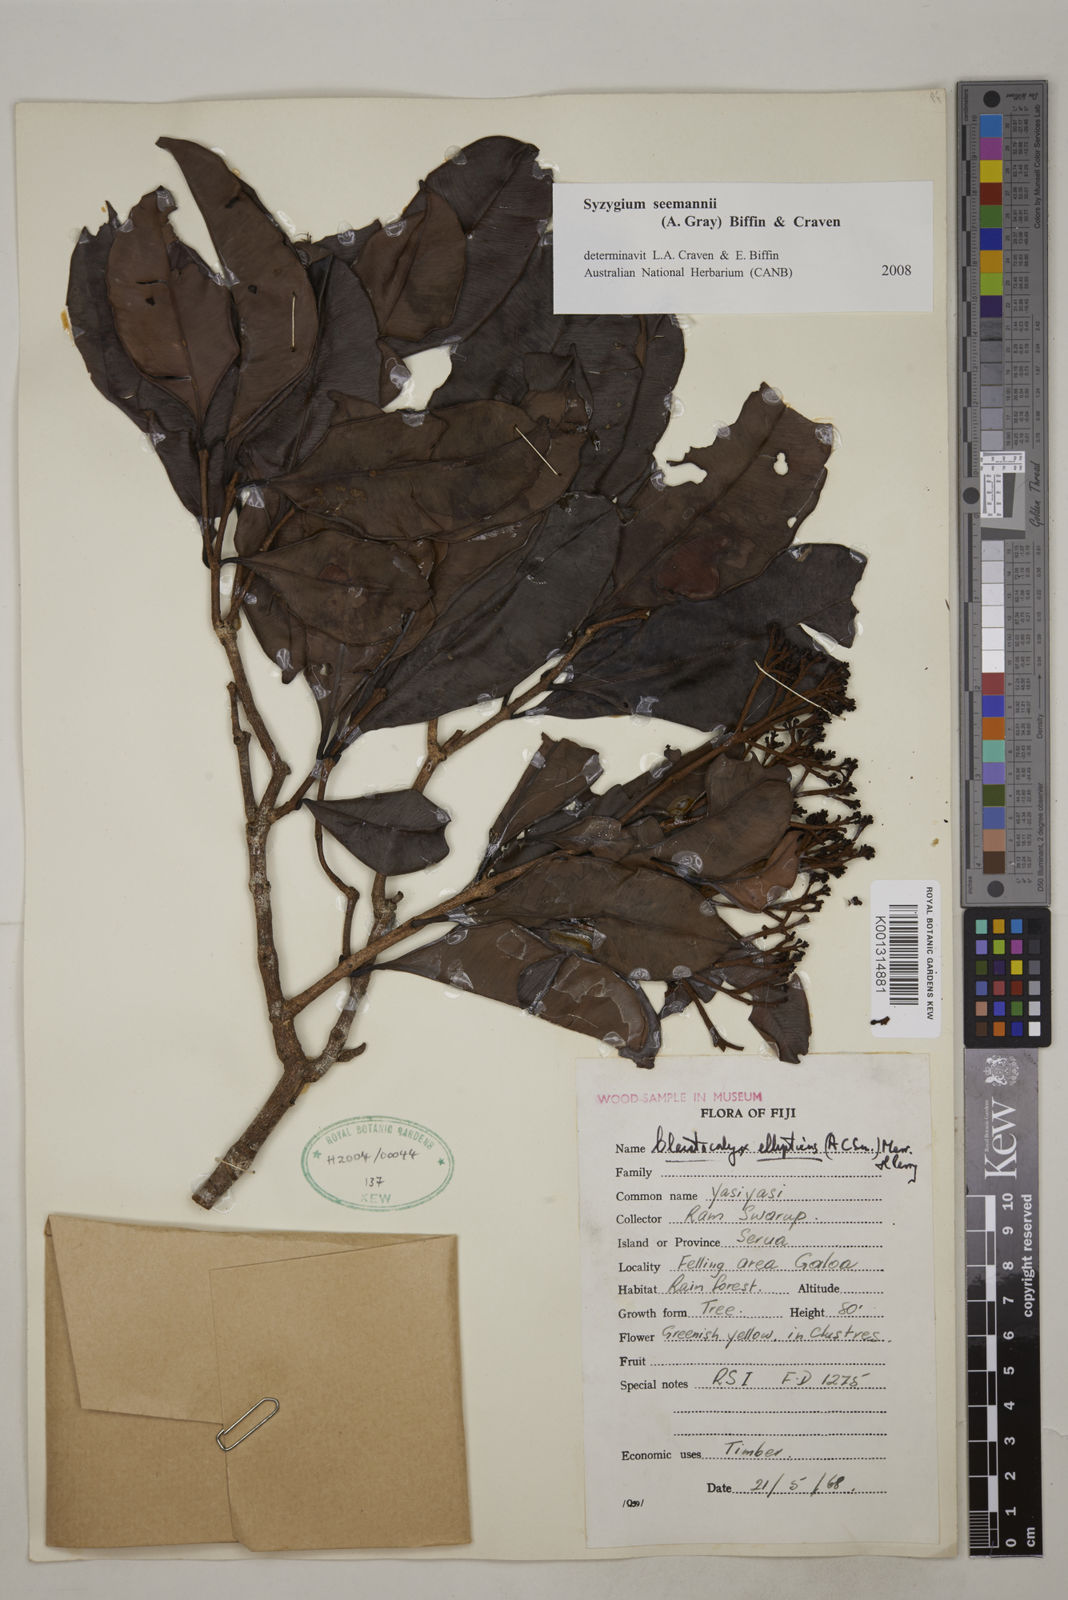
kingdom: Plantae
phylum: Tracheophyta
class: Magnoliopsida
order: Myrtales
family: Myrtaceae
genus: Syzygium
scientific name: Syzygium seemannii
